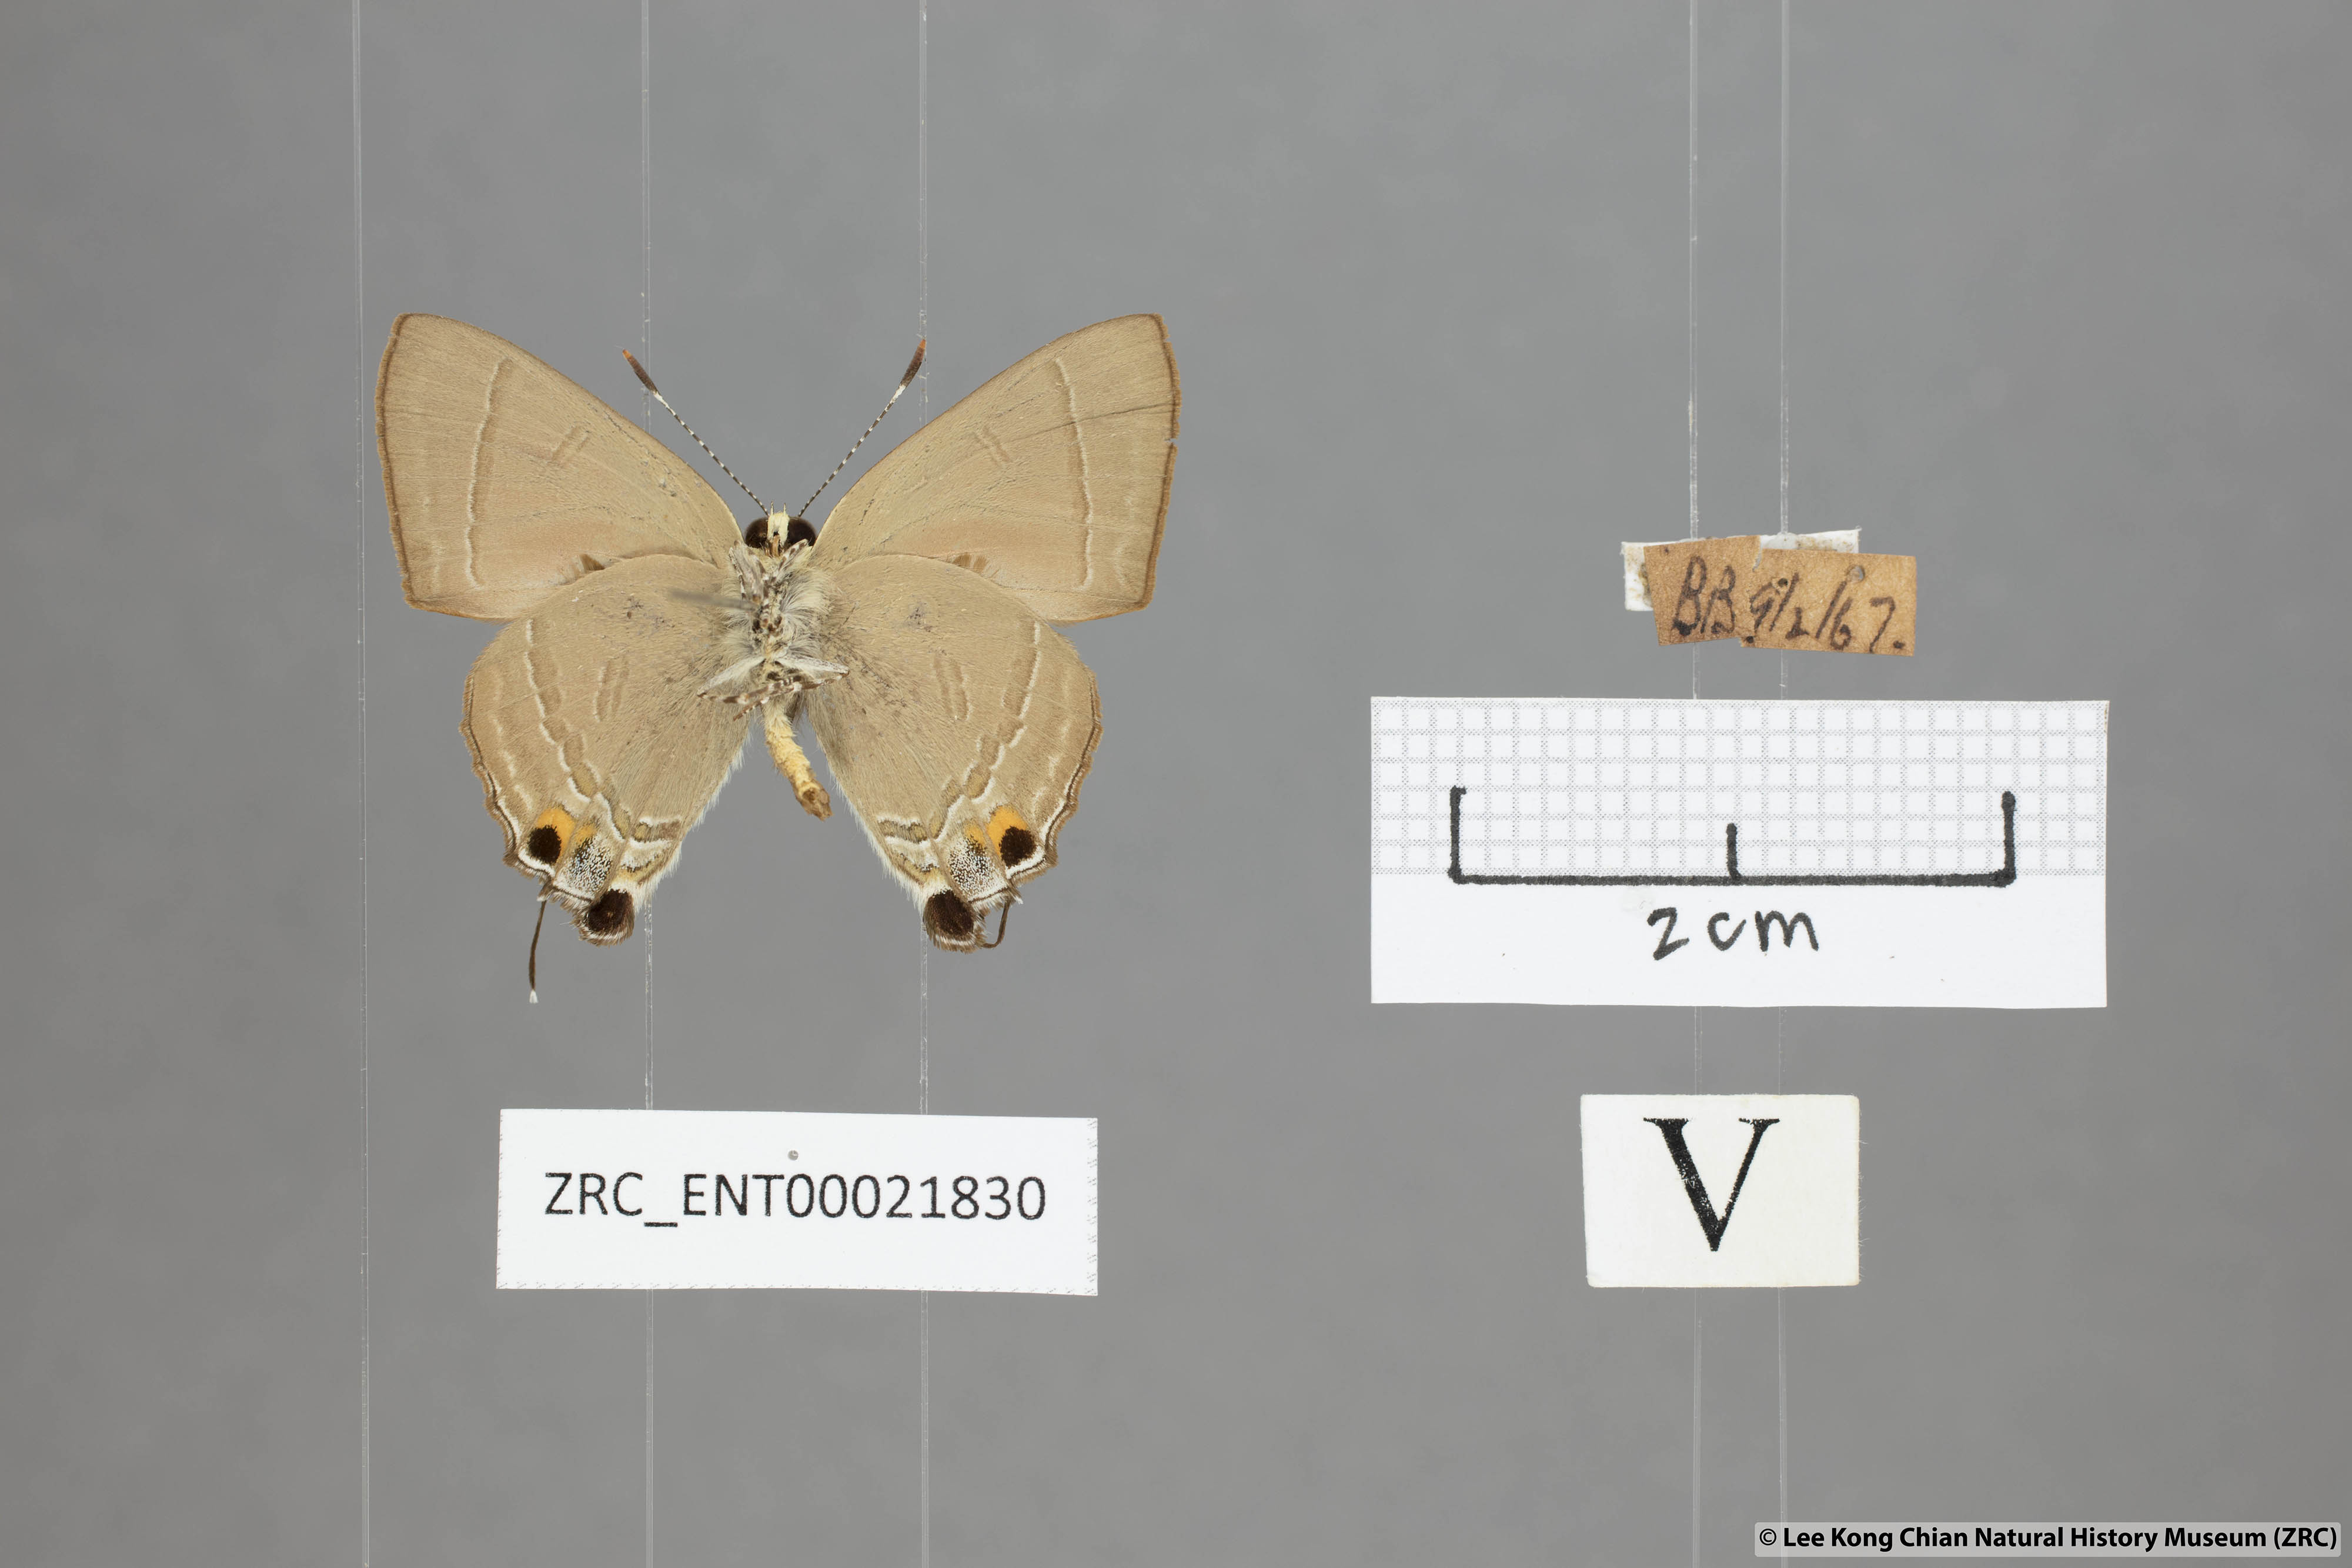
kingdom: Animalia
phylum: Arthropoda
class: Insecta
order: Lepidoptera
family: Lycaenidae
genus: Rapala
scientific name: Rapala iarbas
